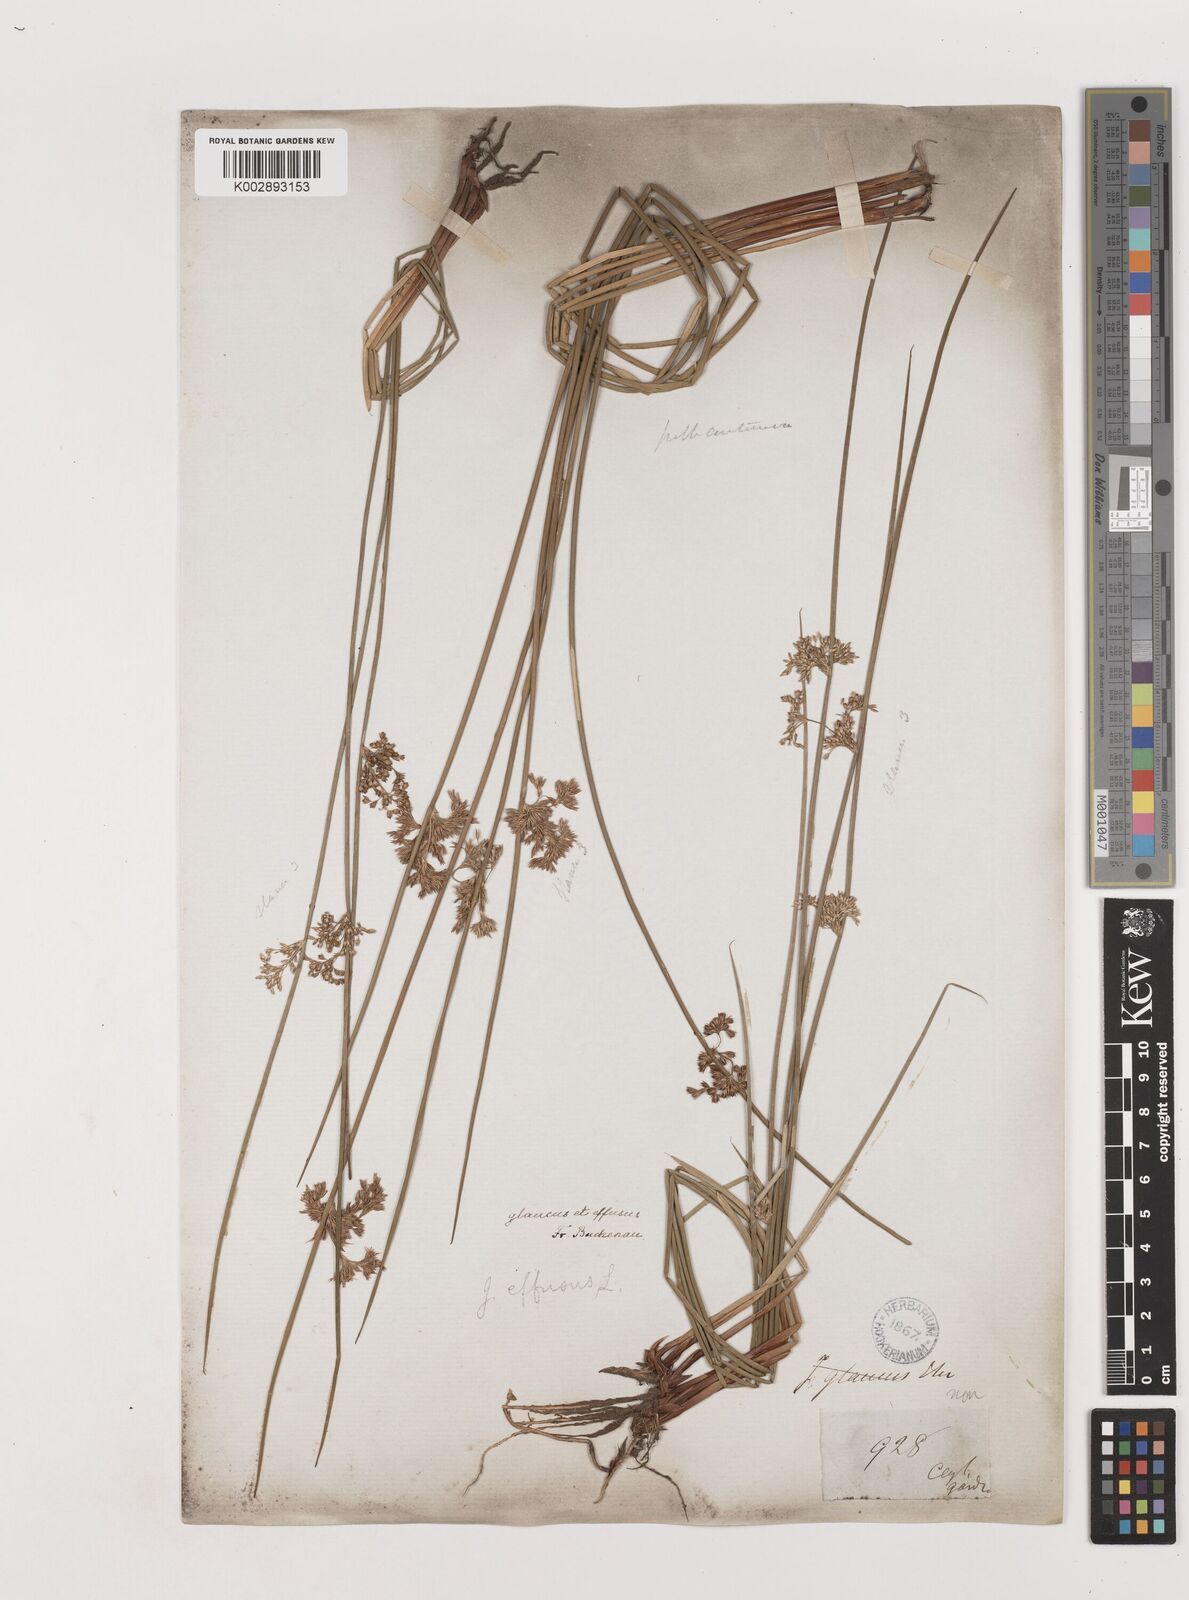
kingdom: Plantae
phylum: Tracheophyta
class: Liliopsida
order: Poales
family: Juncaceae
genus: Juncus
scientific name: Juncus effusus
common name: Soft rush
